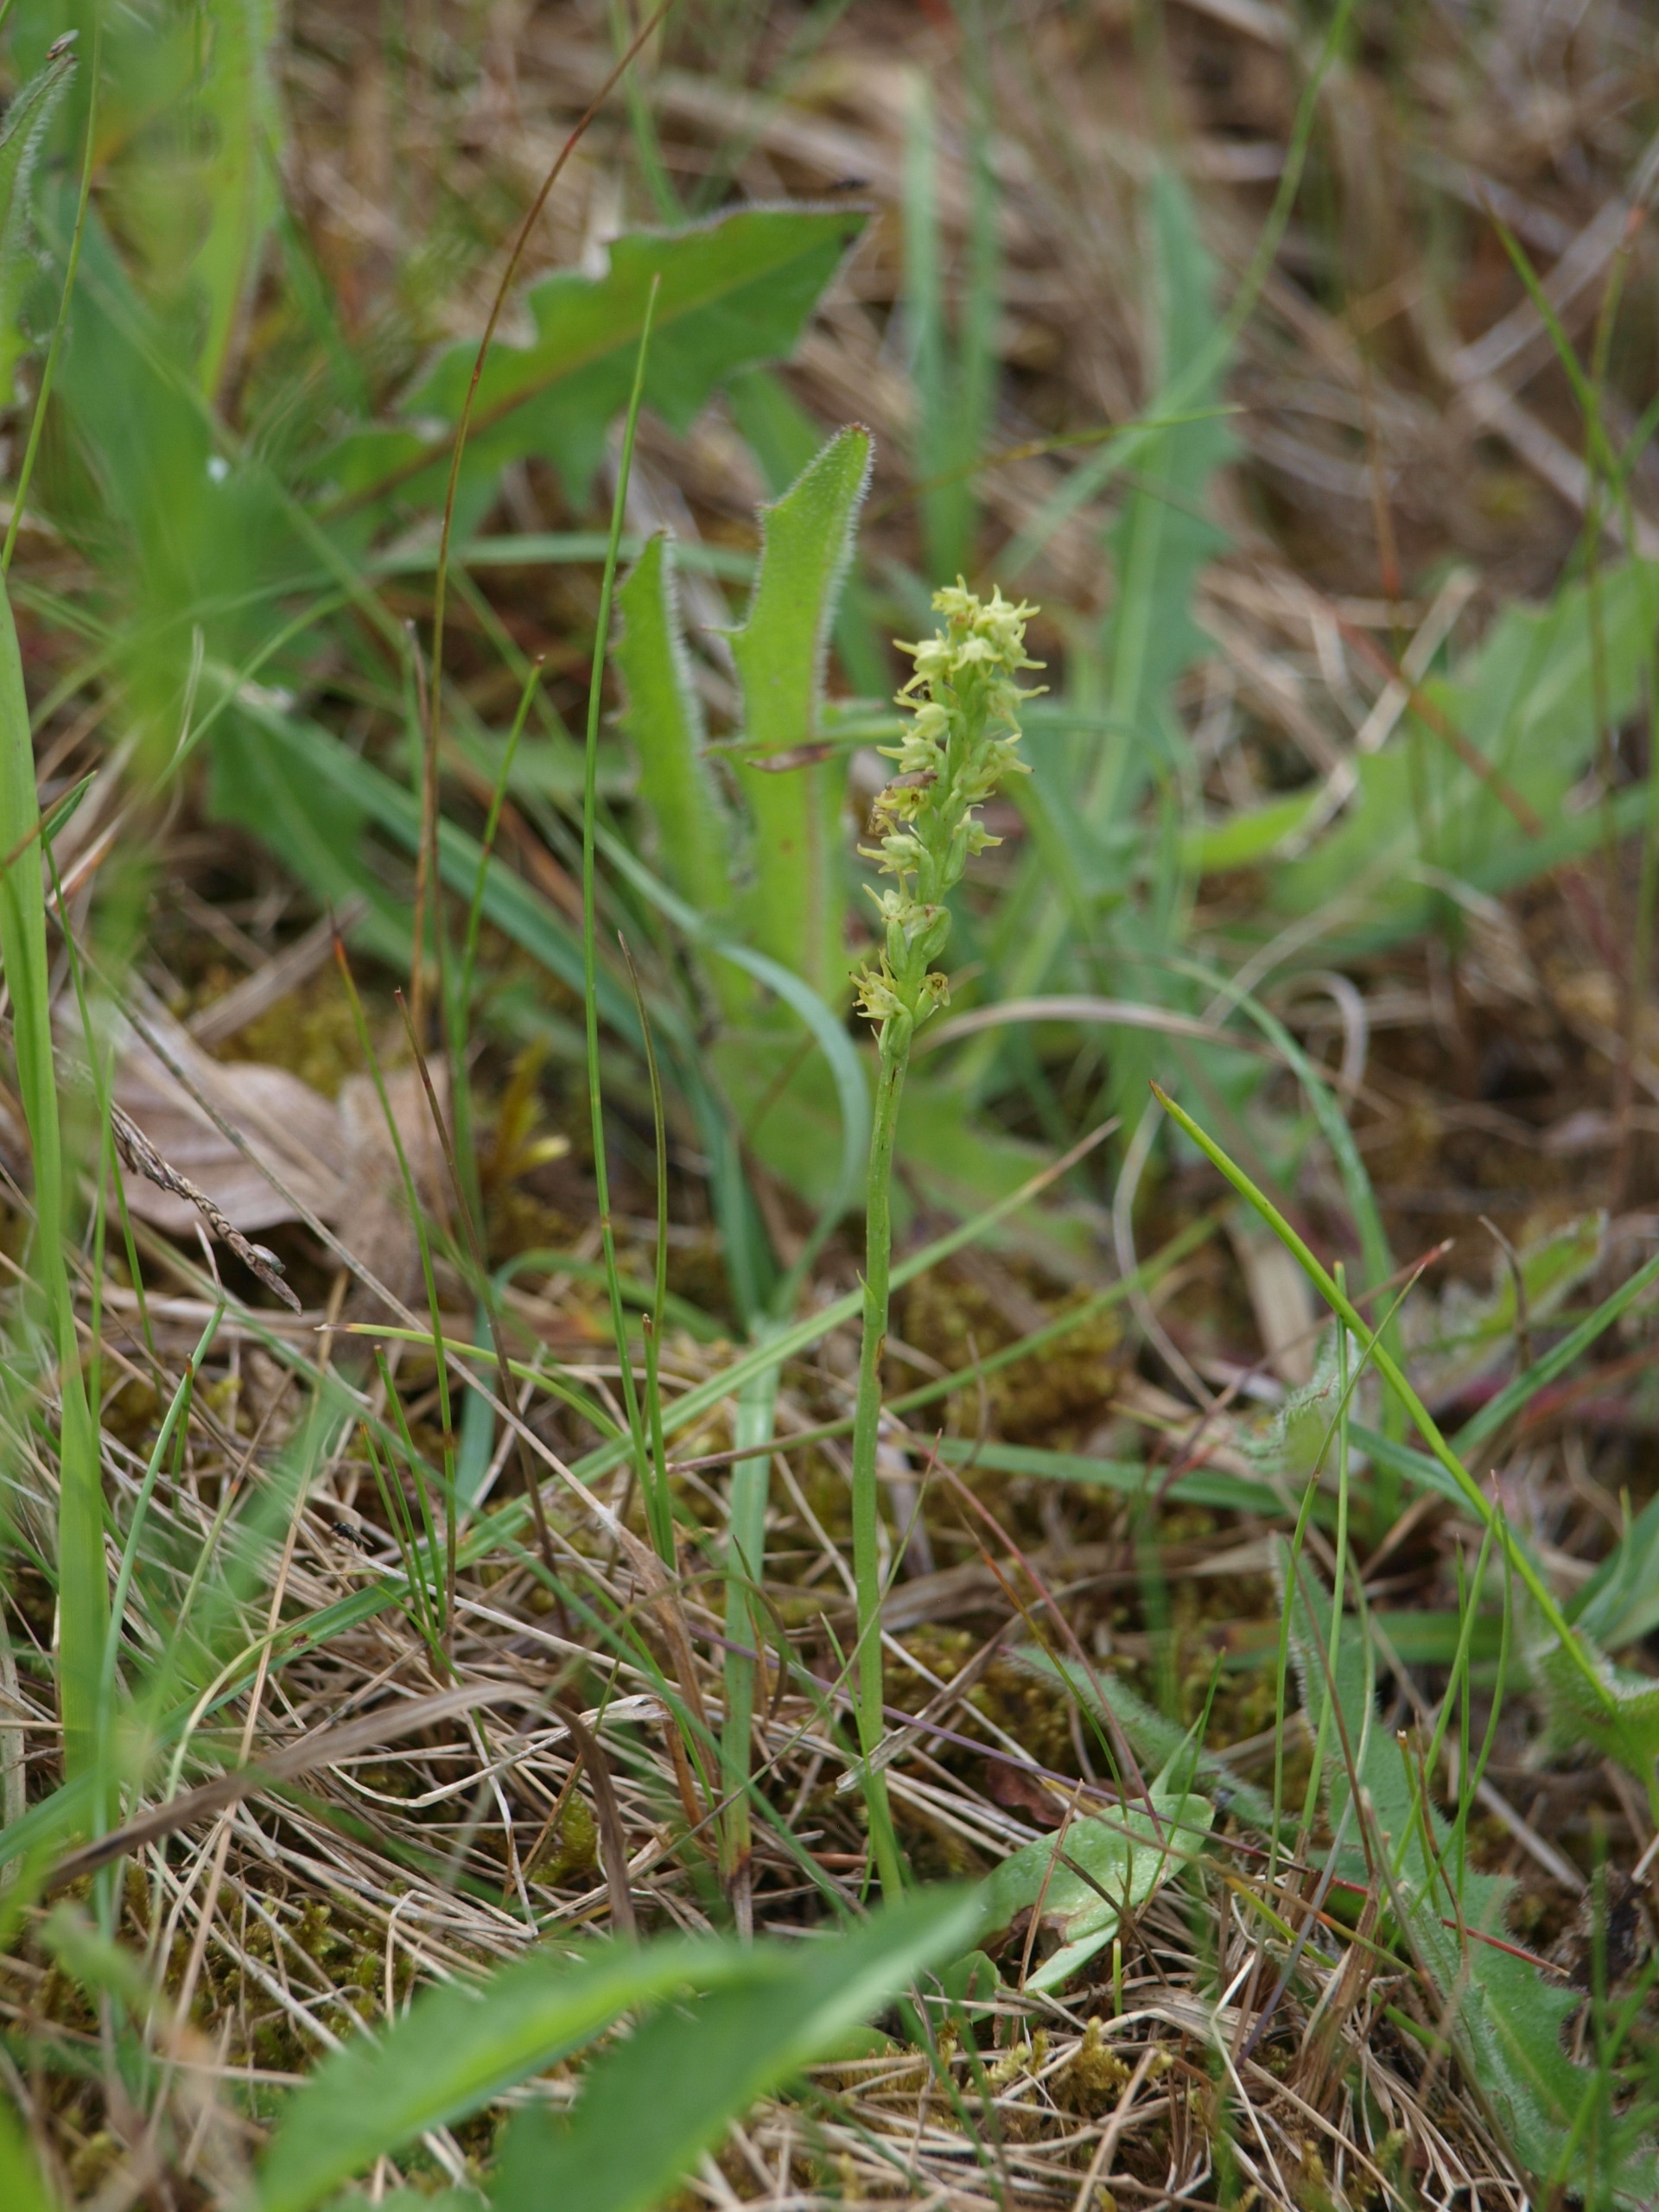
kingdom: Plantae
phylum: Tracheophyta
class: Liliopsida
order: Asparagales
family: Orchidaceae
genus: Herminium
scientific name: Herminium monorchis
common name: Pukkellæbe
